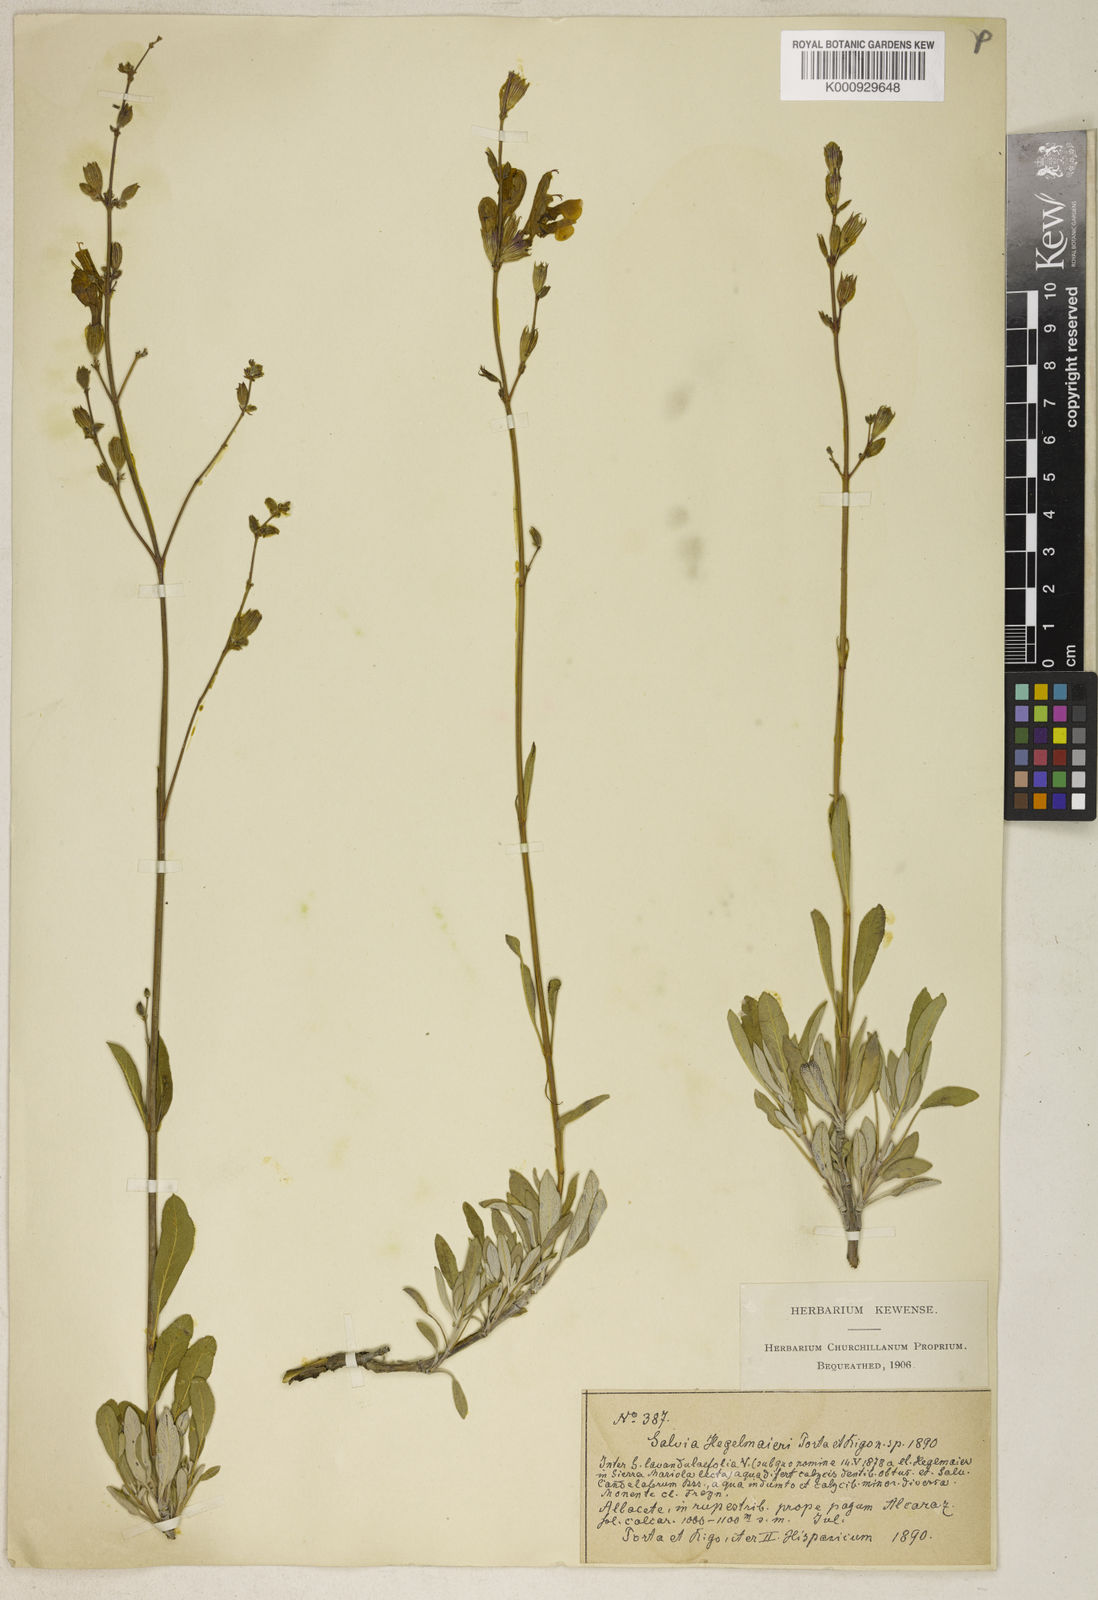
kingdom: Plantae
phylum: Tracheophyta
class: Magnoliopsida
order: Lamiales
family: Lamiaceae
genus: Salvia
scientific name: Salvia hegelmaieri
